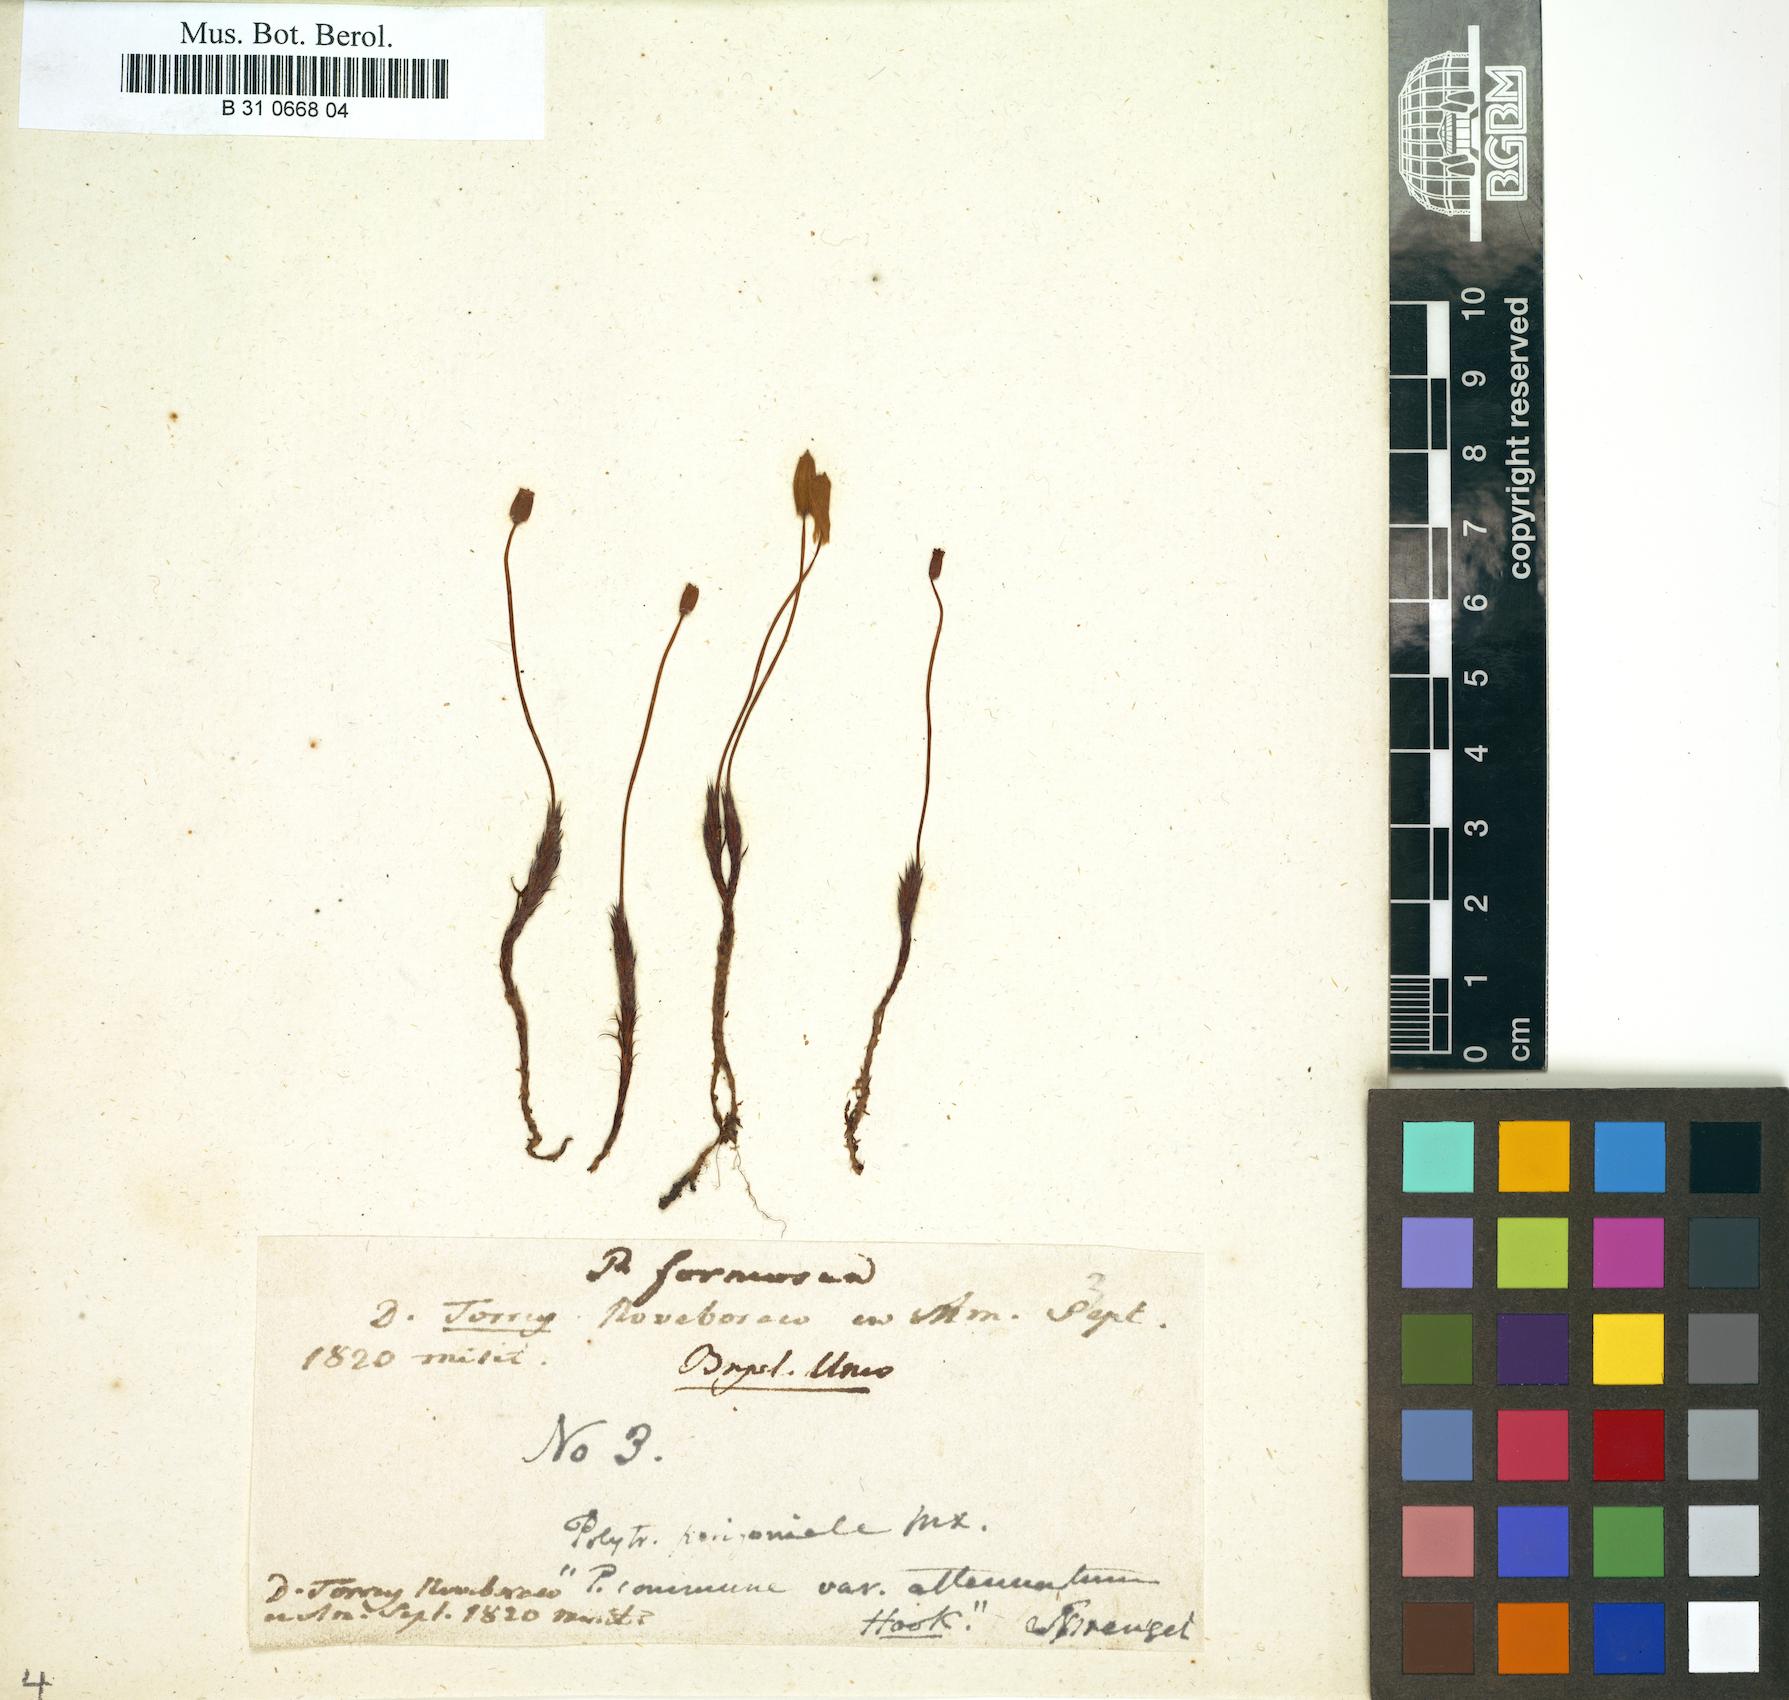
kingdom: Plantae
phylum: Bryophyta
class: Polytrichopsida
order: Polytrichales
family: Polytrichaceae
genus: Polytrichum
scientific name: Polytrichum formosum
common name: Bank haircap moss
